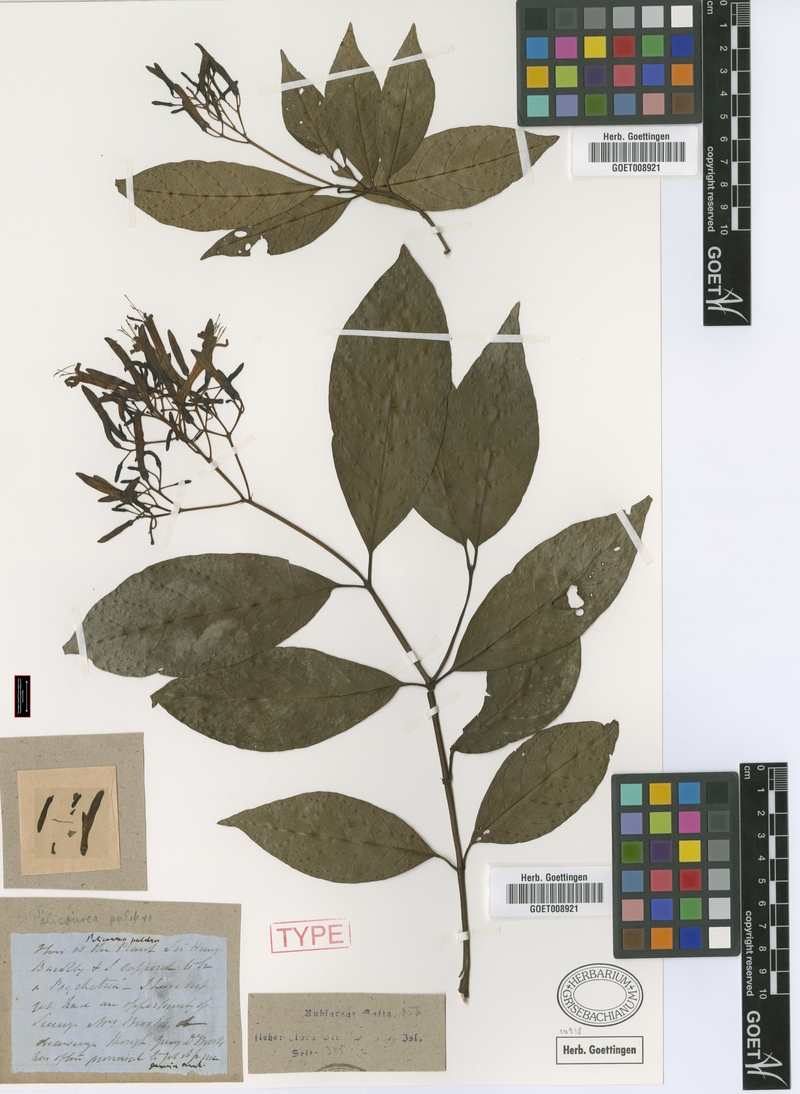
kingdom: Plantae
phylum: Tracheophyta
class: Magnoliopsida
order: Gentianales
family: Rubiaceae
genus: Palicourea
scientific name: Palicourea pulchra
